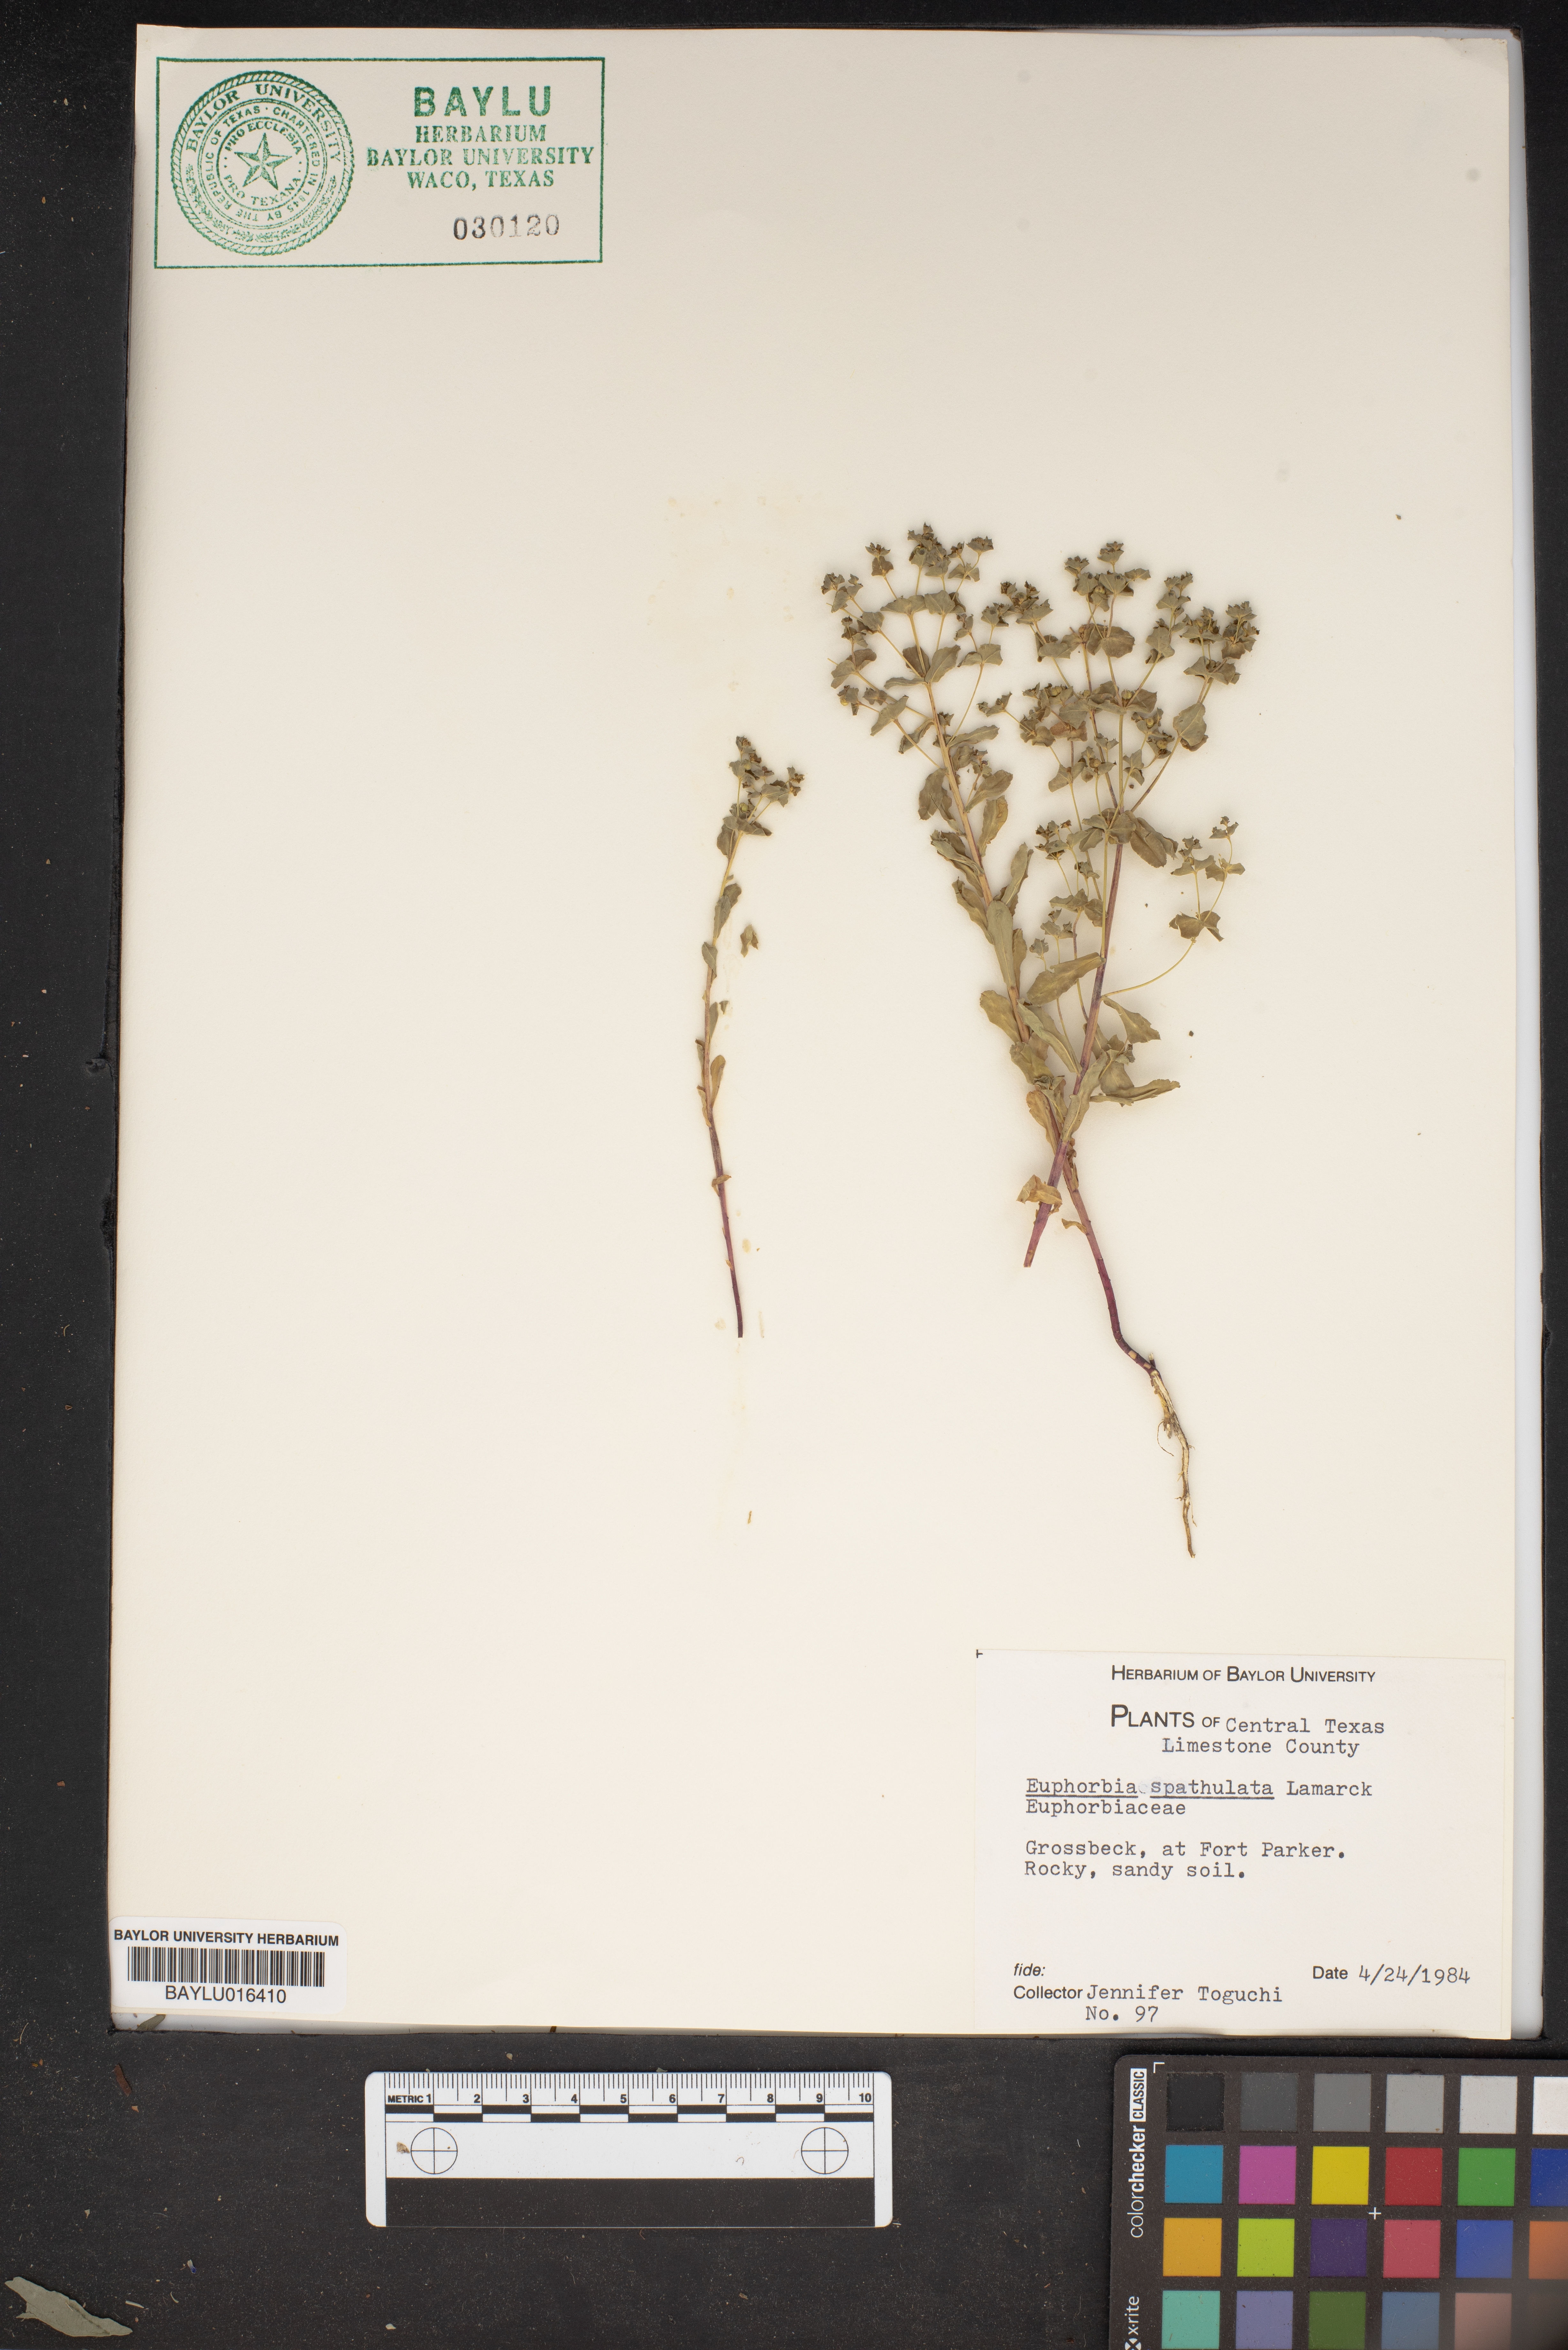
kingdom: Plantae
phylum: Tracheophyta
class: Magnoliopsida
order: Malpighiales
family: Euphorbiaceae
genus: Euphorbia
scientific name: Euphorbia spathulata
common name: Blunt spurge
